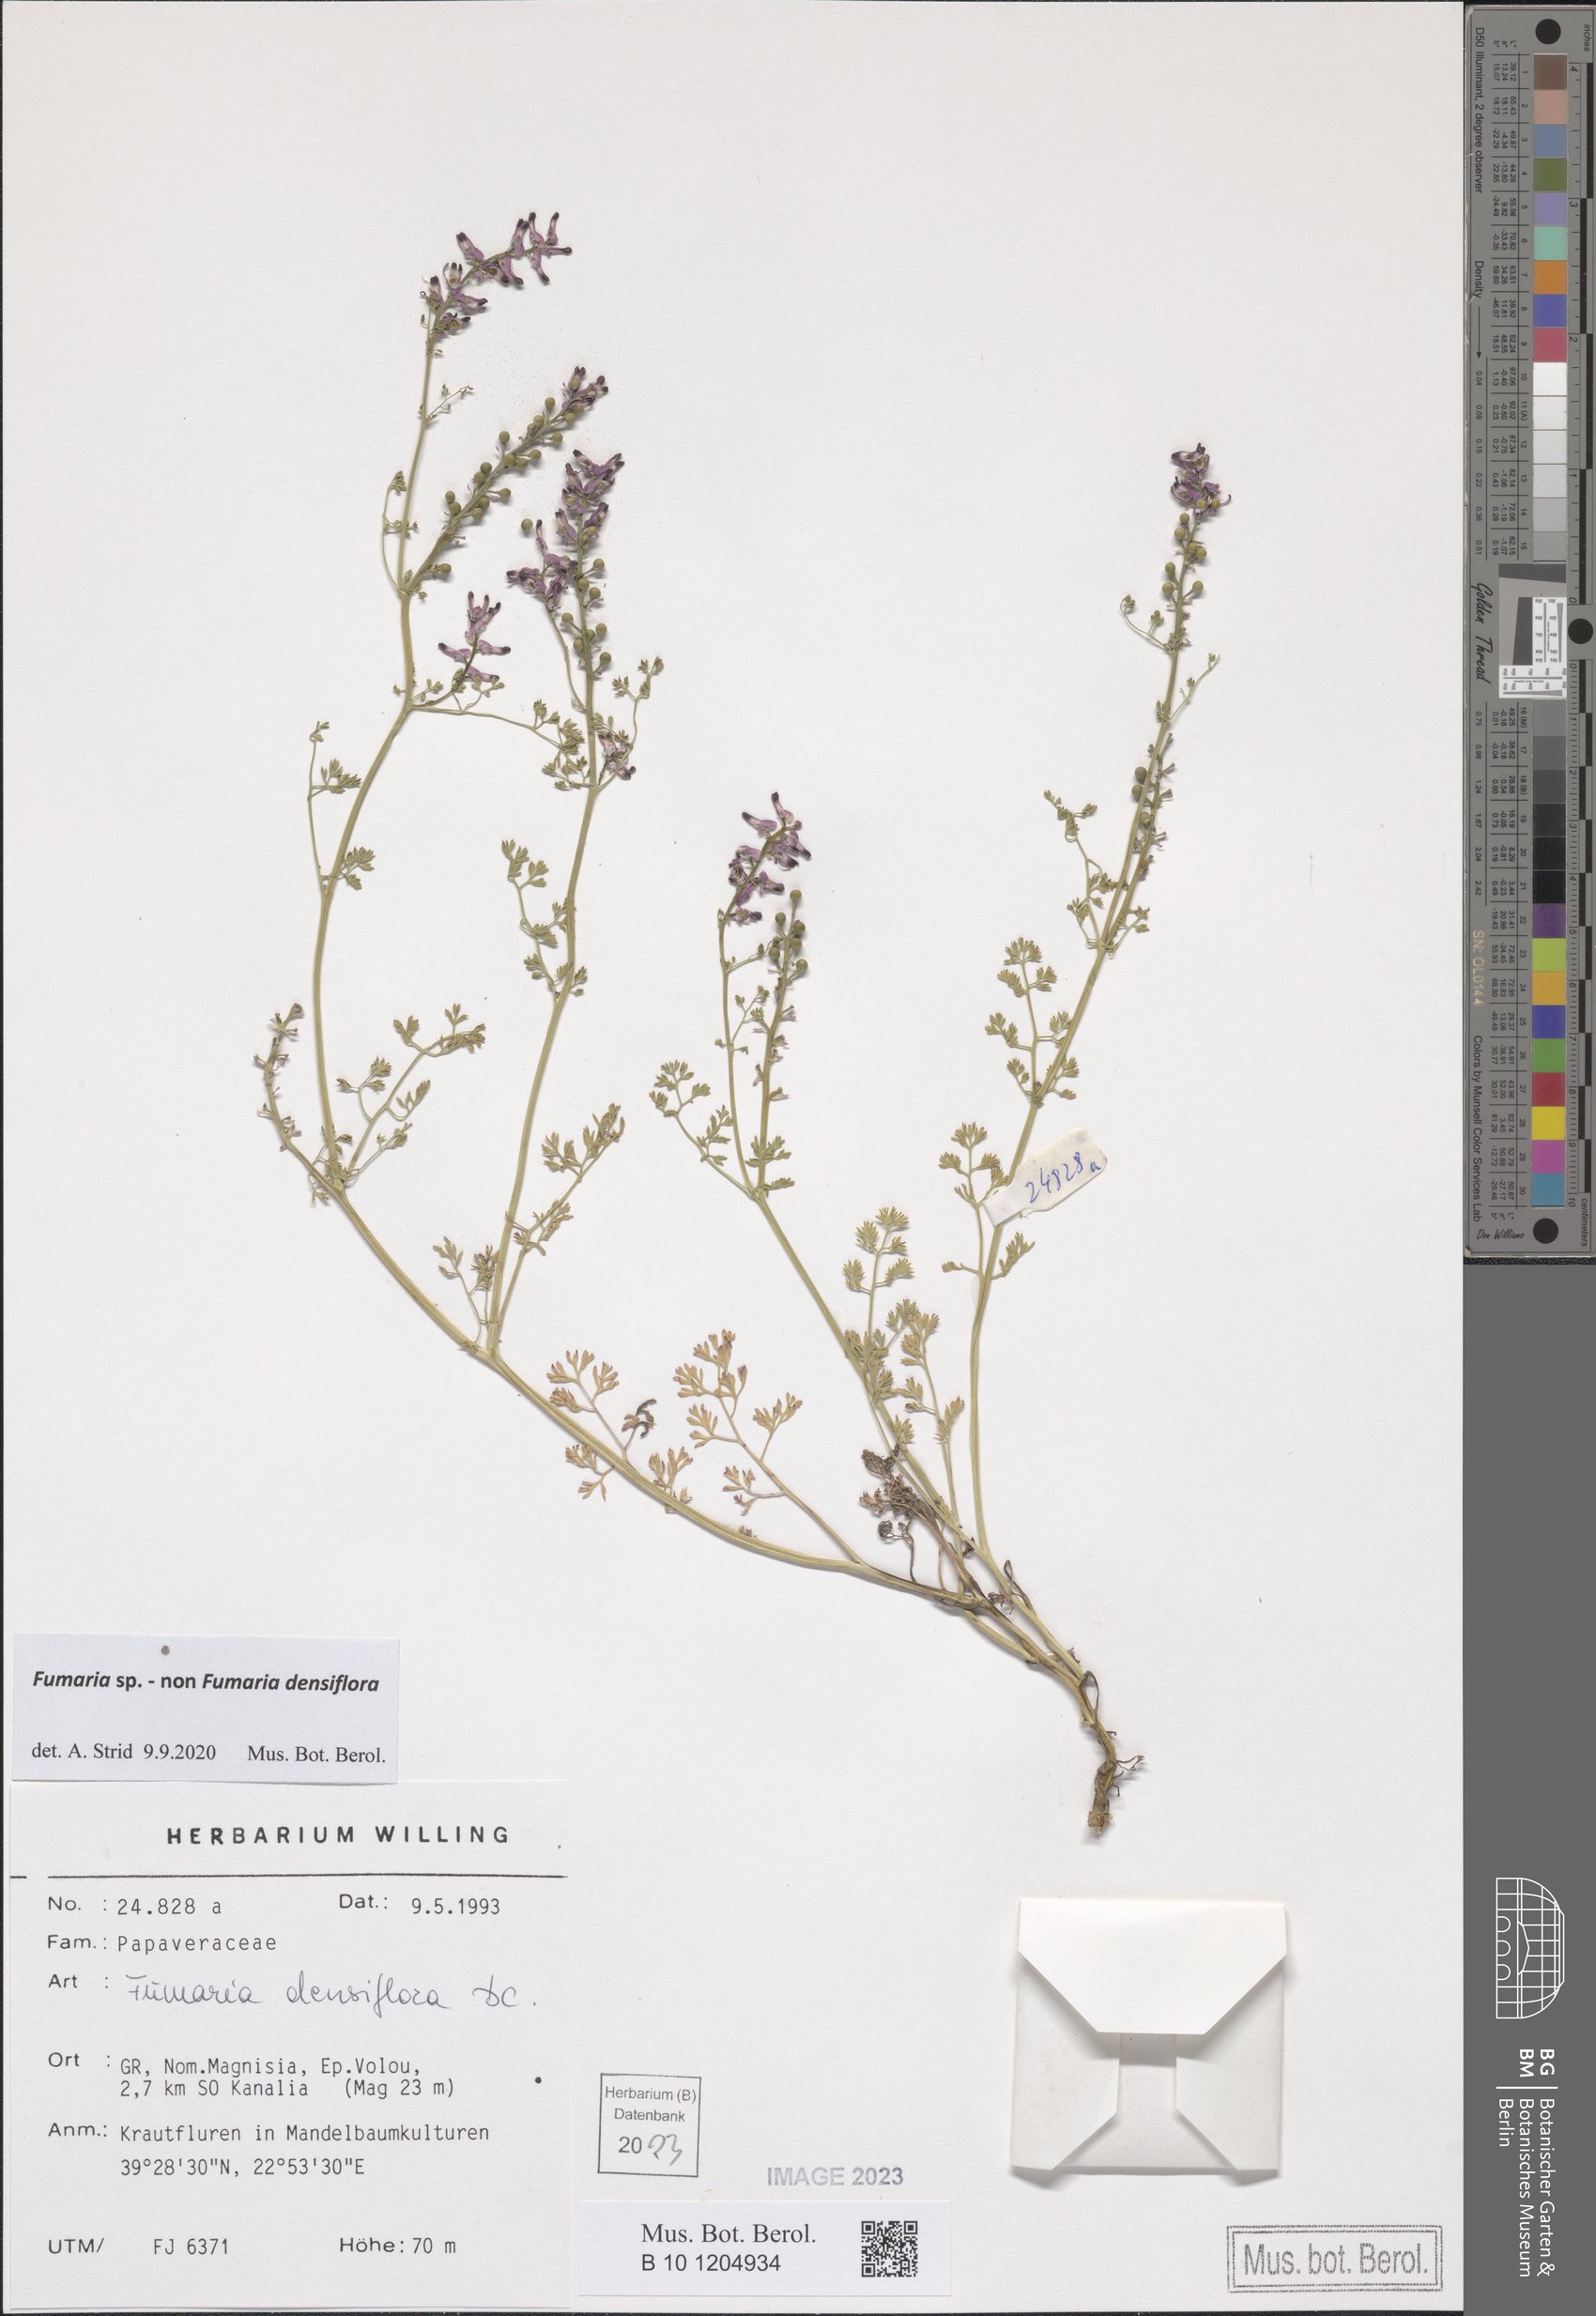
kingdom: Plantae
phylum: Tracheophyta
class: Magnoliopsida
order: Ranunculales
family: Papaveraceae
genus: Fumaria
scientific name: Fumaria
